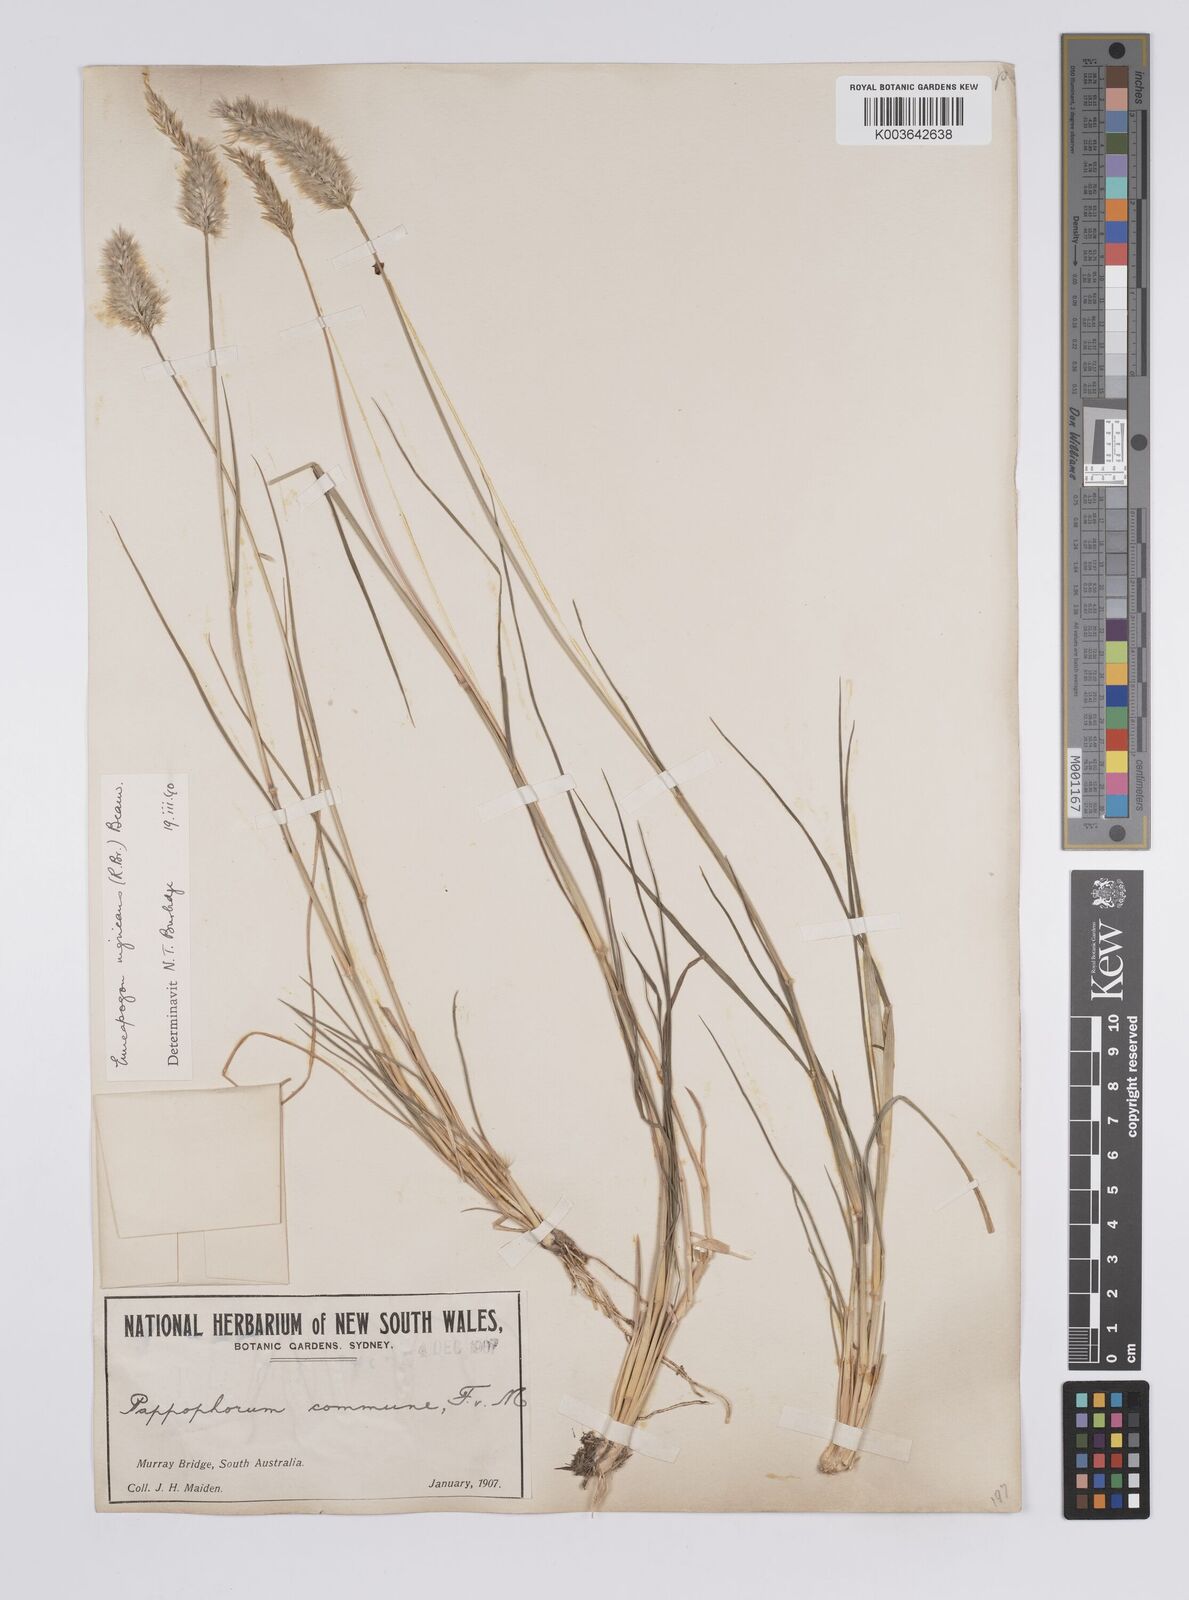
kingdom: Plantae
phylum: Tracheophyta
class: Liliopsida
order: Poales
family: Poaceae
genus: Enneapogon
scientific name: Enneapogon nigricans
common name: Pappus grass
